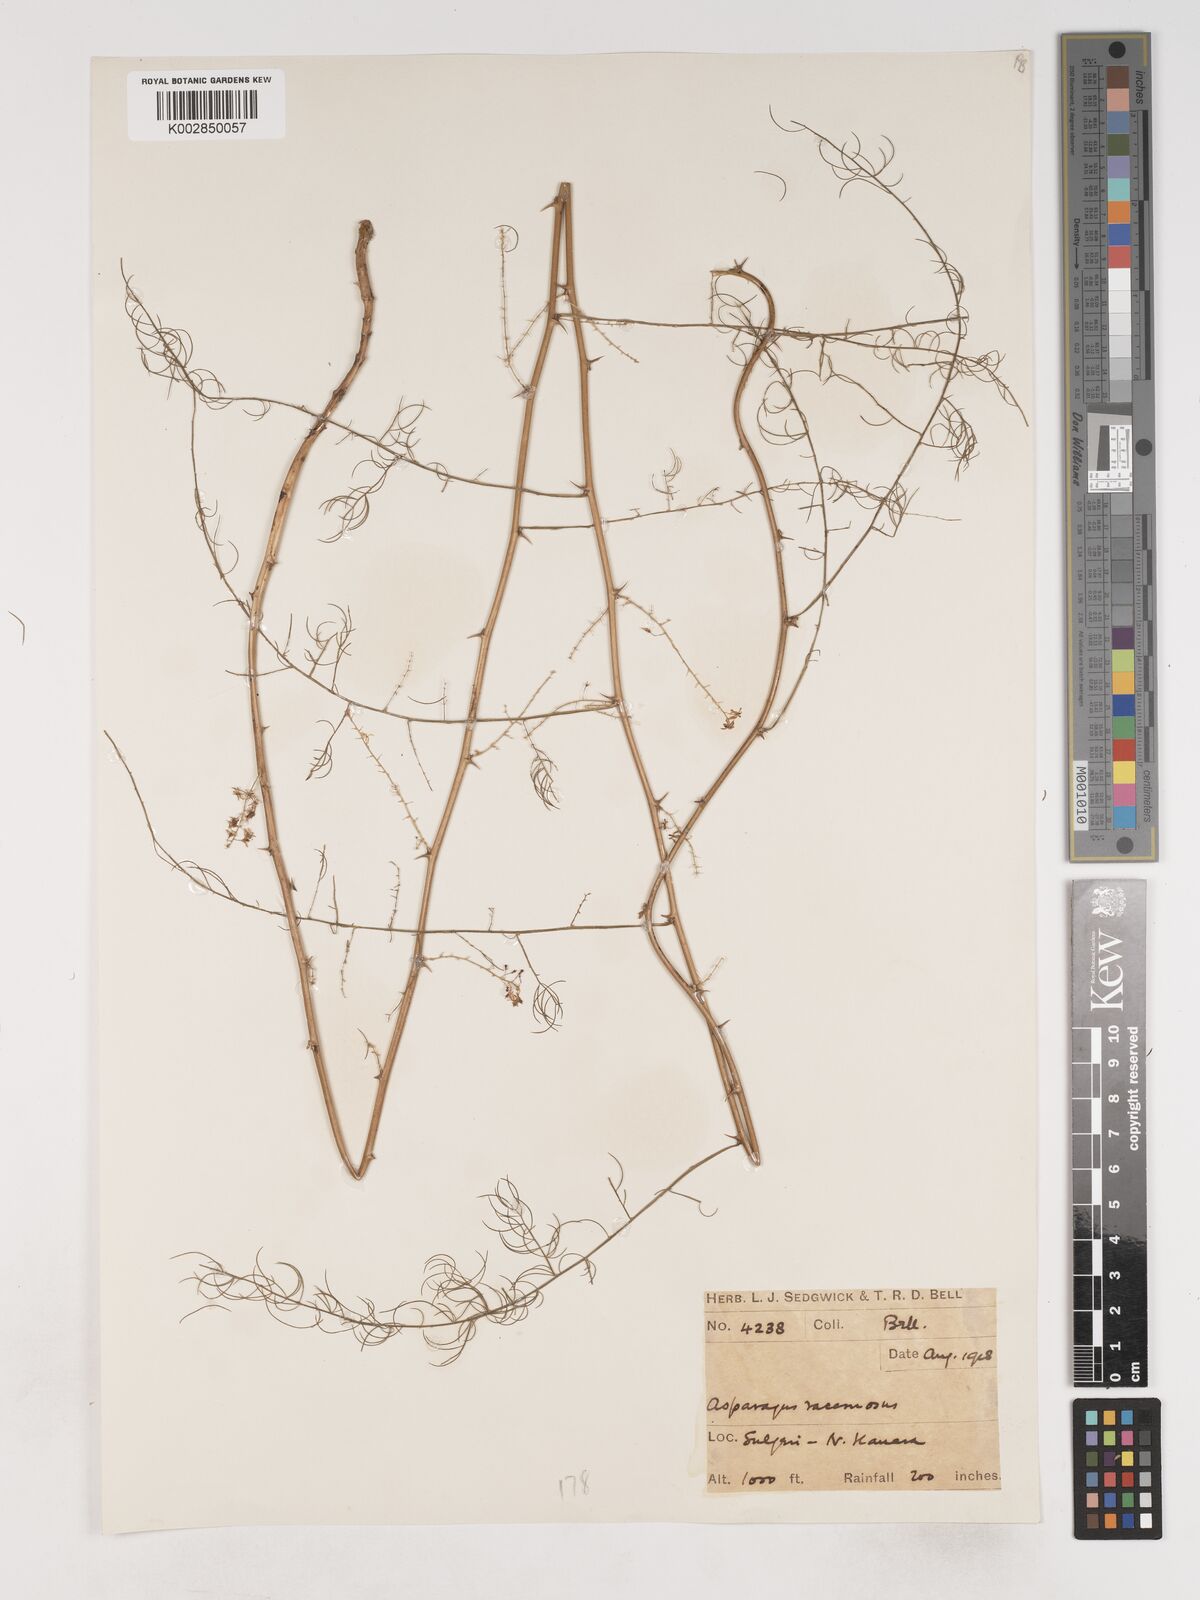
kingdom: Plantae
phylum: Tracheophyta
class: Liliopsida
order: Asparagales
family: Asparagaceae
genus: Asparagus
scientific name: Asparagus racemosus
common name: Asparagus-fern
